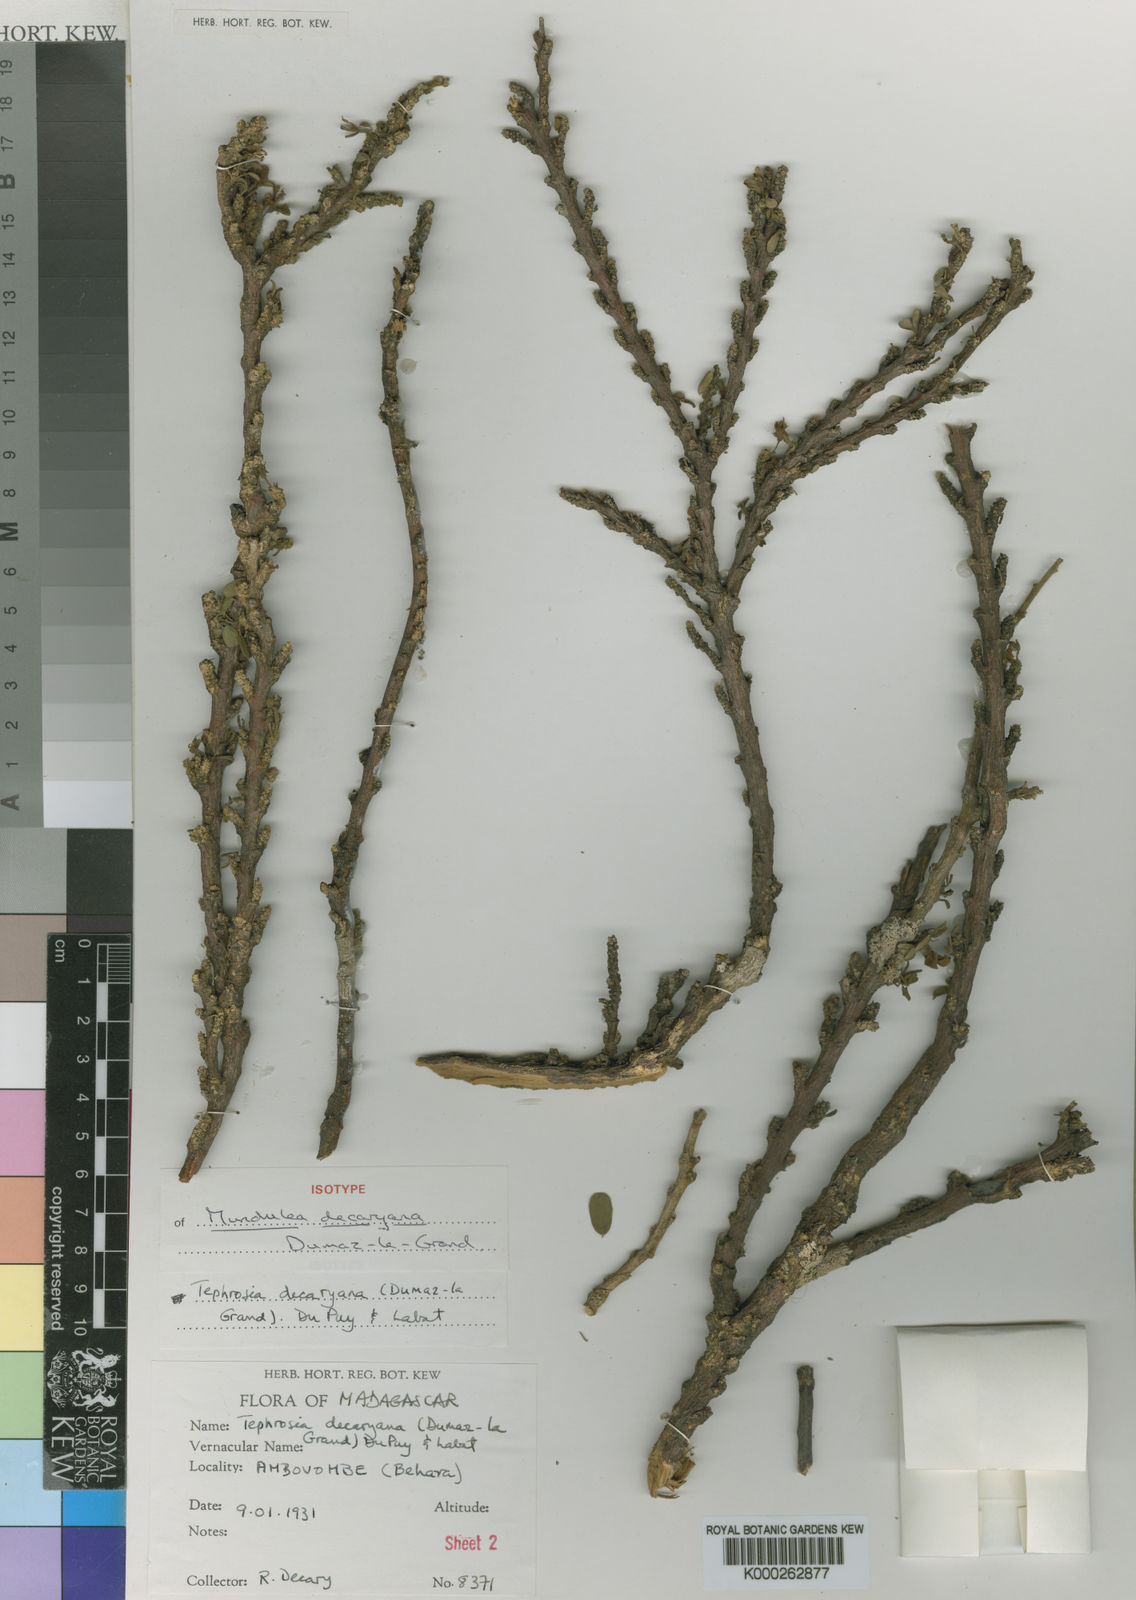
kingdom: Plantae
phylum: Tracheophyta
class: Magnoliopsida
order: Fabales
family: Fabaceae
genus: Tephrosia
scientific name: Tephrosia decaryana
